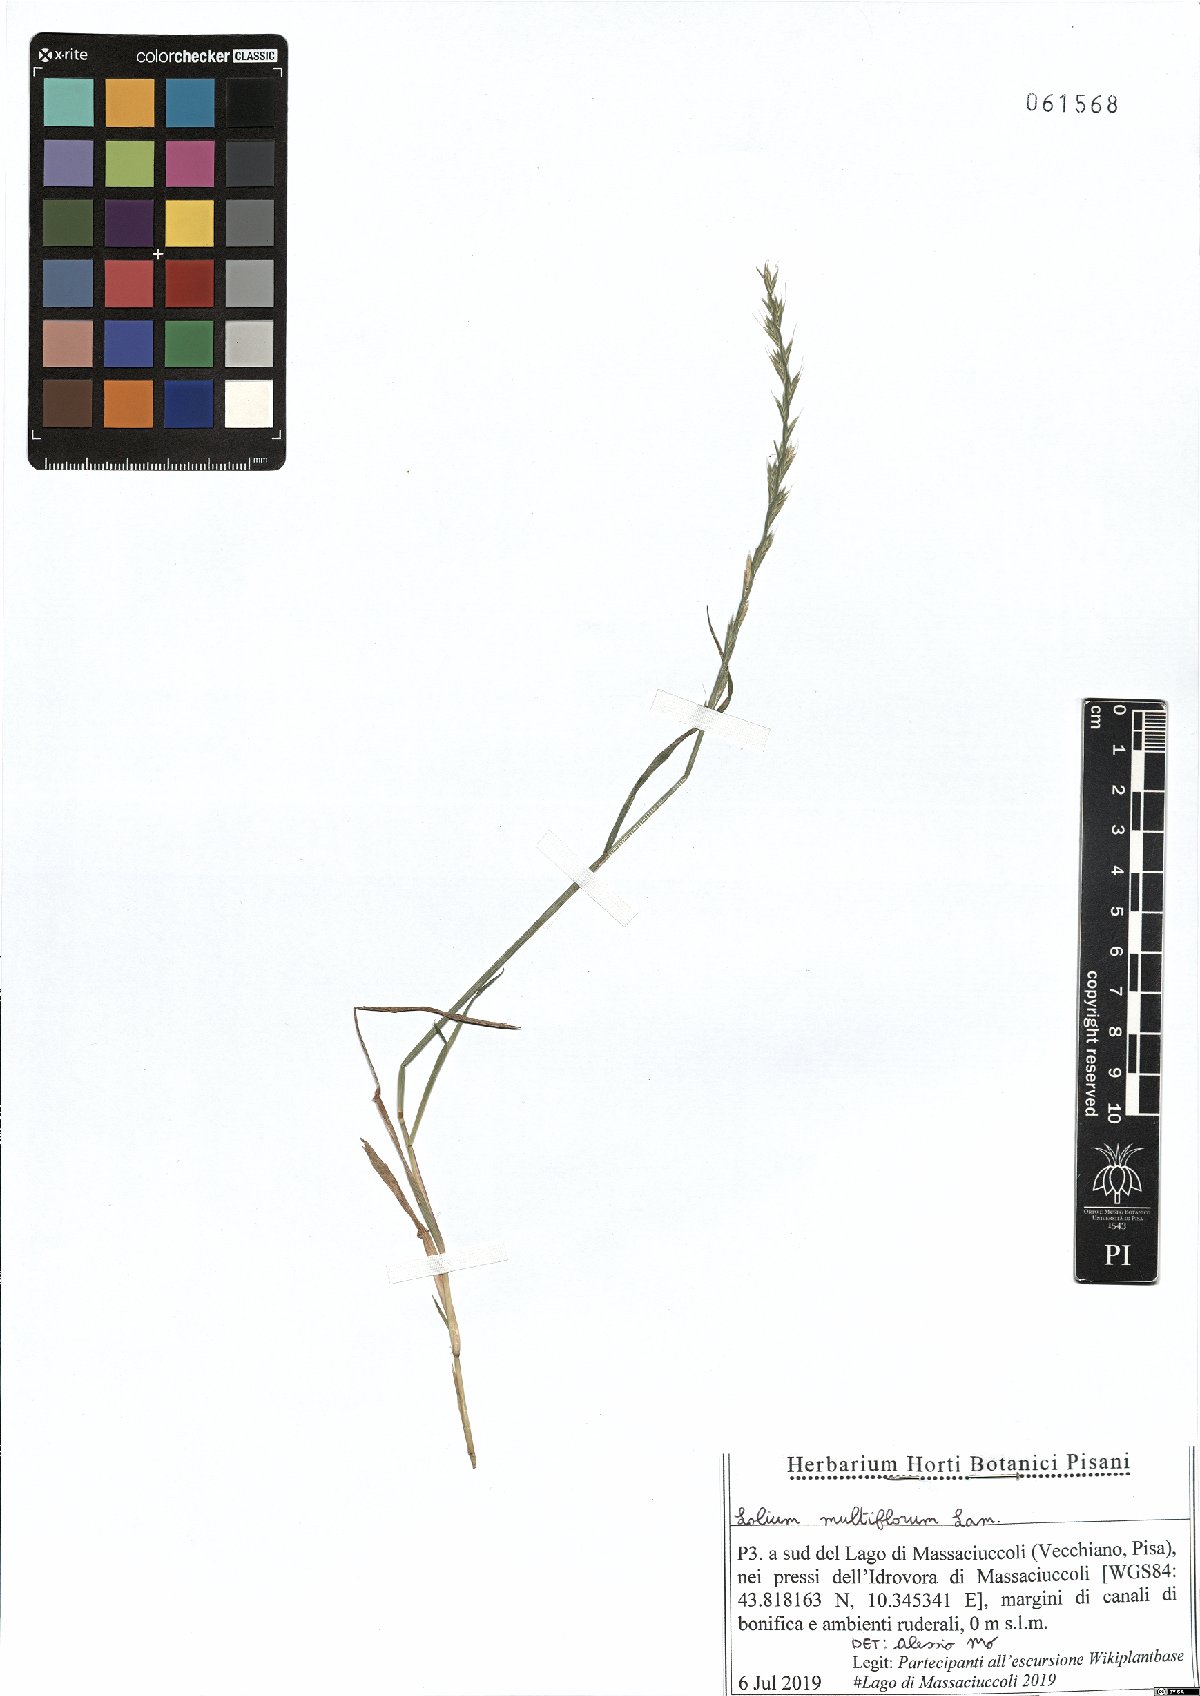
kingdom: Plantae
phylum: Tracheophyta
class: Liliopsida
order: Poales
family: Poaceae
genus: Lolium
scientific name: Lolium multiflorum
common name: Annual ryegrass
